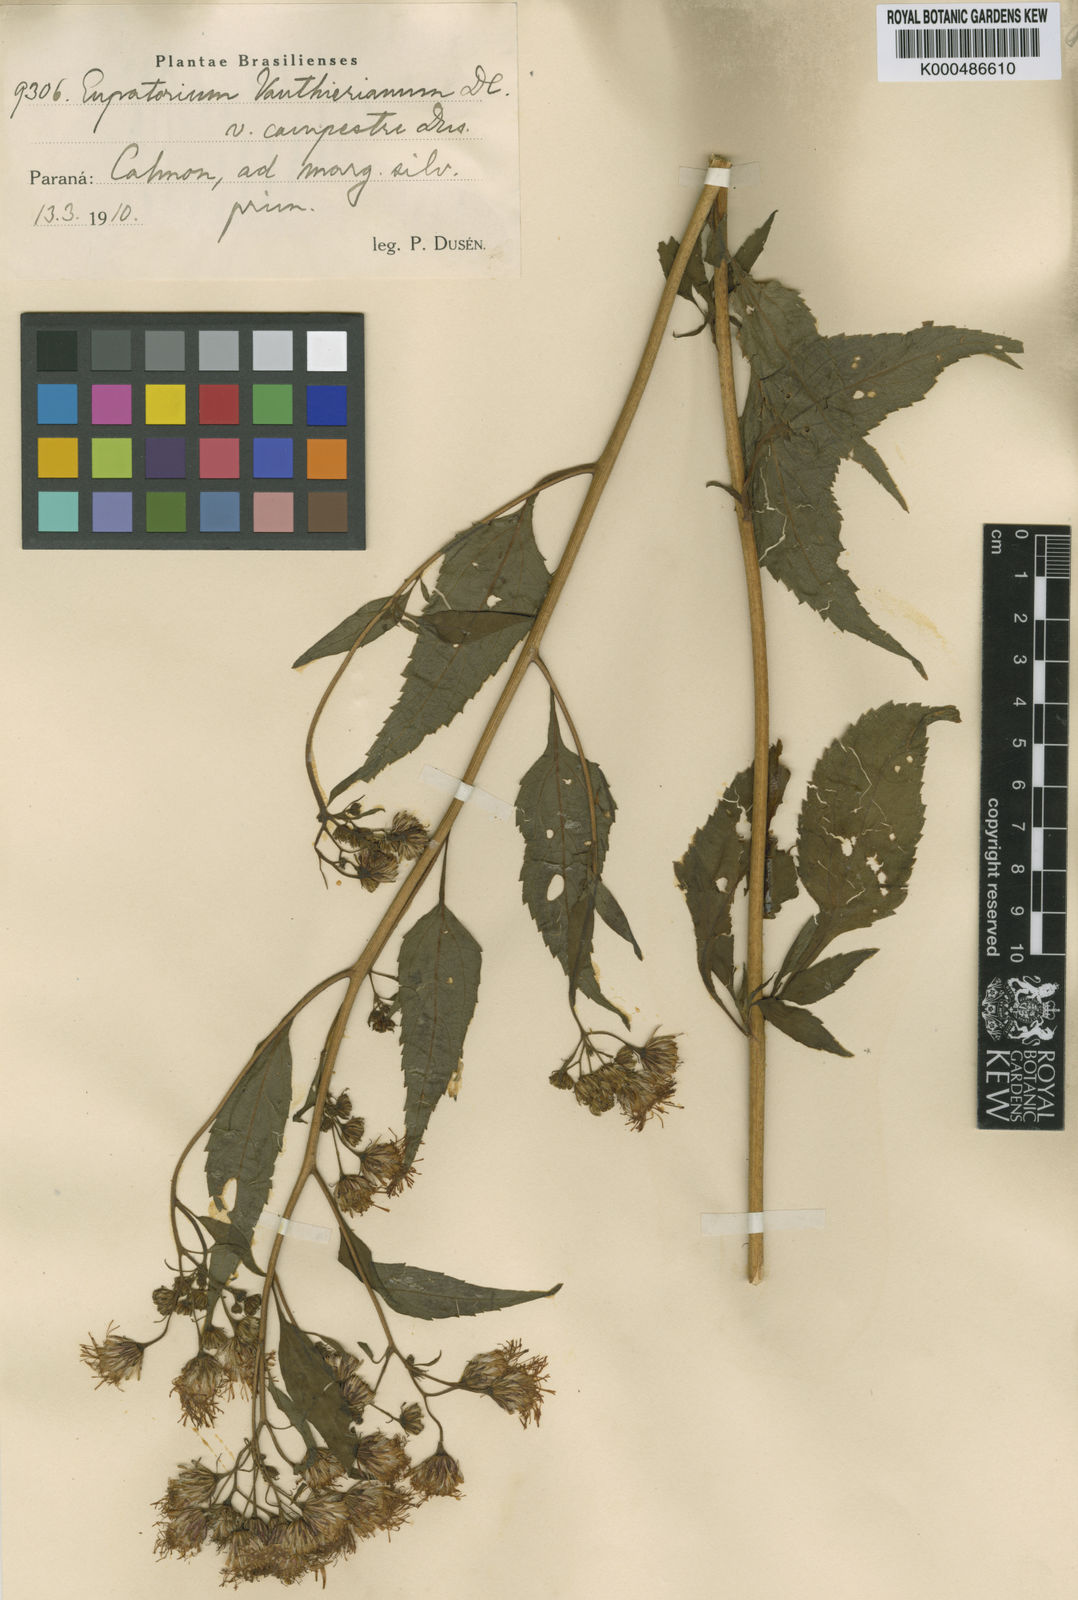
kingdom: Plantae
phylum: Tracheophyta
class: Magnoliopsida
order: Asterales
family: Asteraceae
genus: Heterocondylus
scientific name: Heterocondylus alatus
